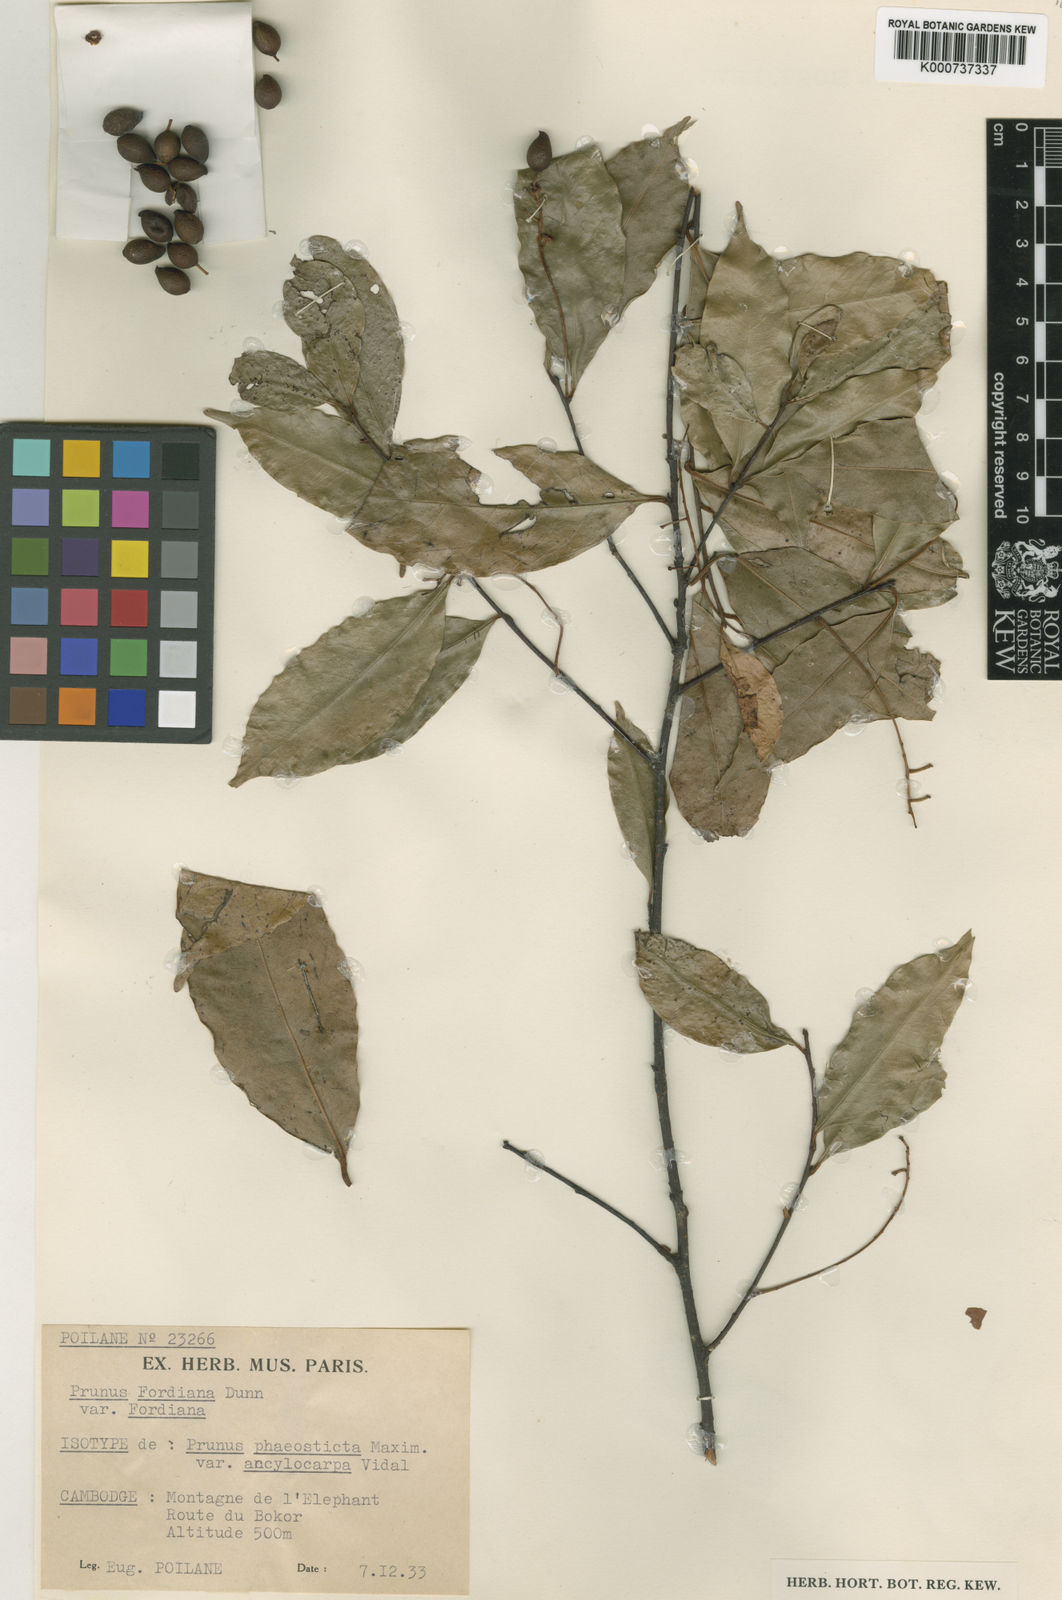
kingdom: Plantae
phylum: Tracheophyta
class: Magnoliopsida
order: Rosales
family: Rosaceae
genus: Prunus
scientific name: Prunus fordiana
